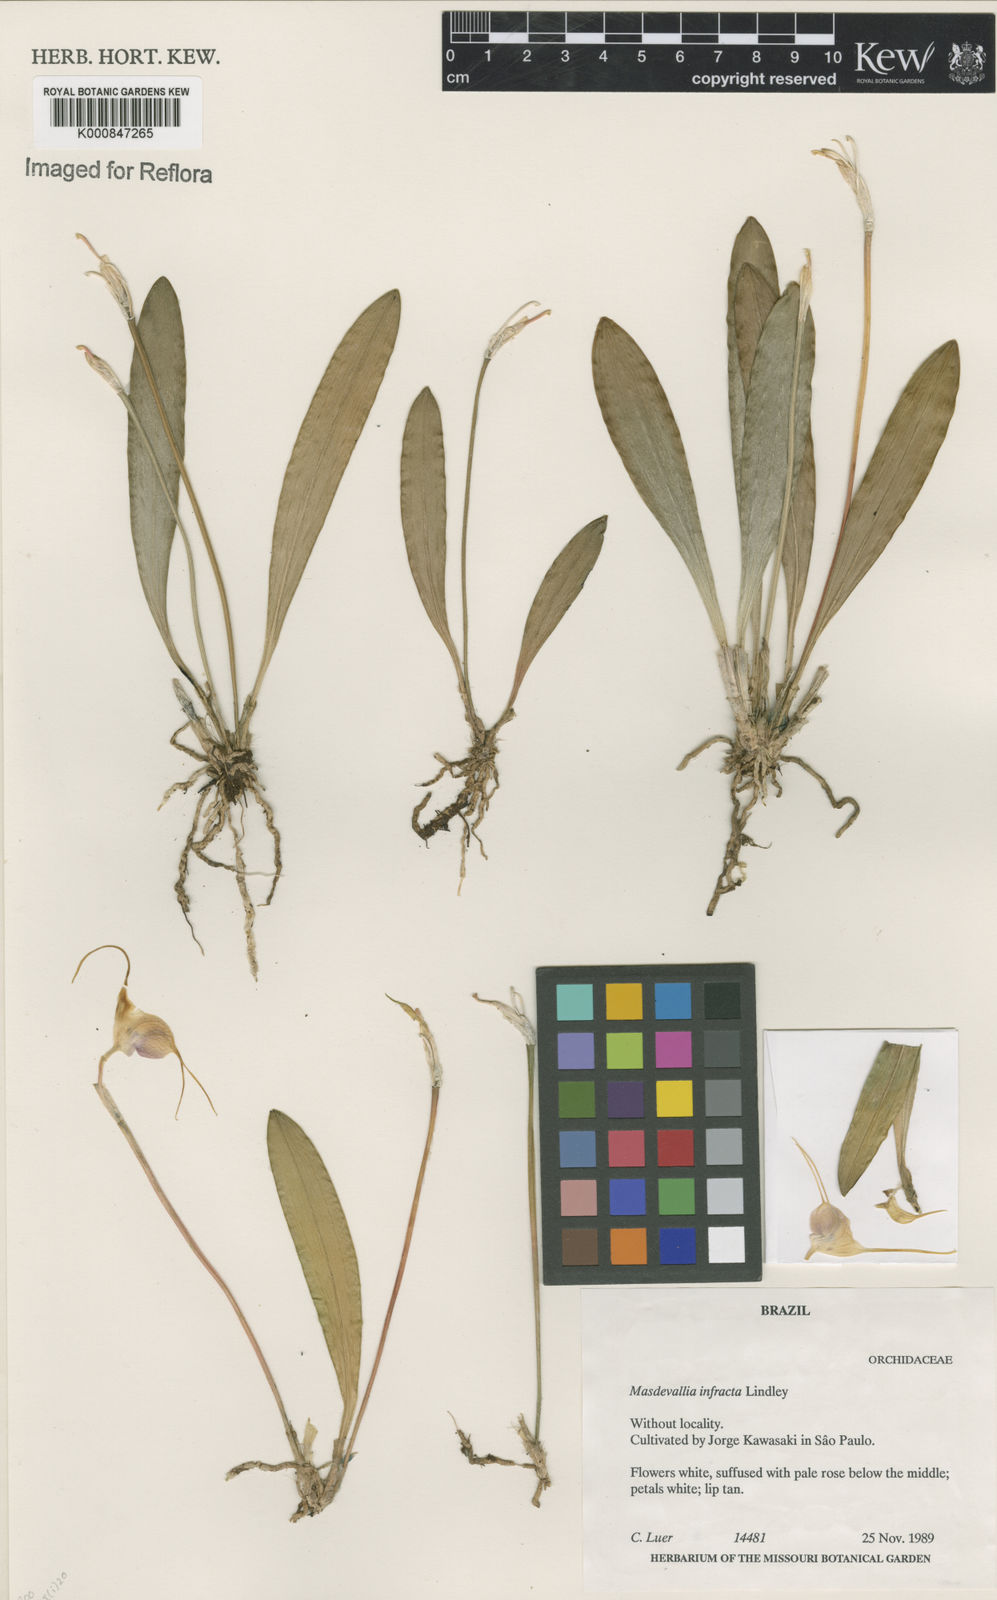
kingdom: Plantae
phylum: Tracheophyta
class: Liliopsida
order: Asparagales
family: Orchidaceae
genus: Masdevallia
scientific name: Masdevallia infracta
